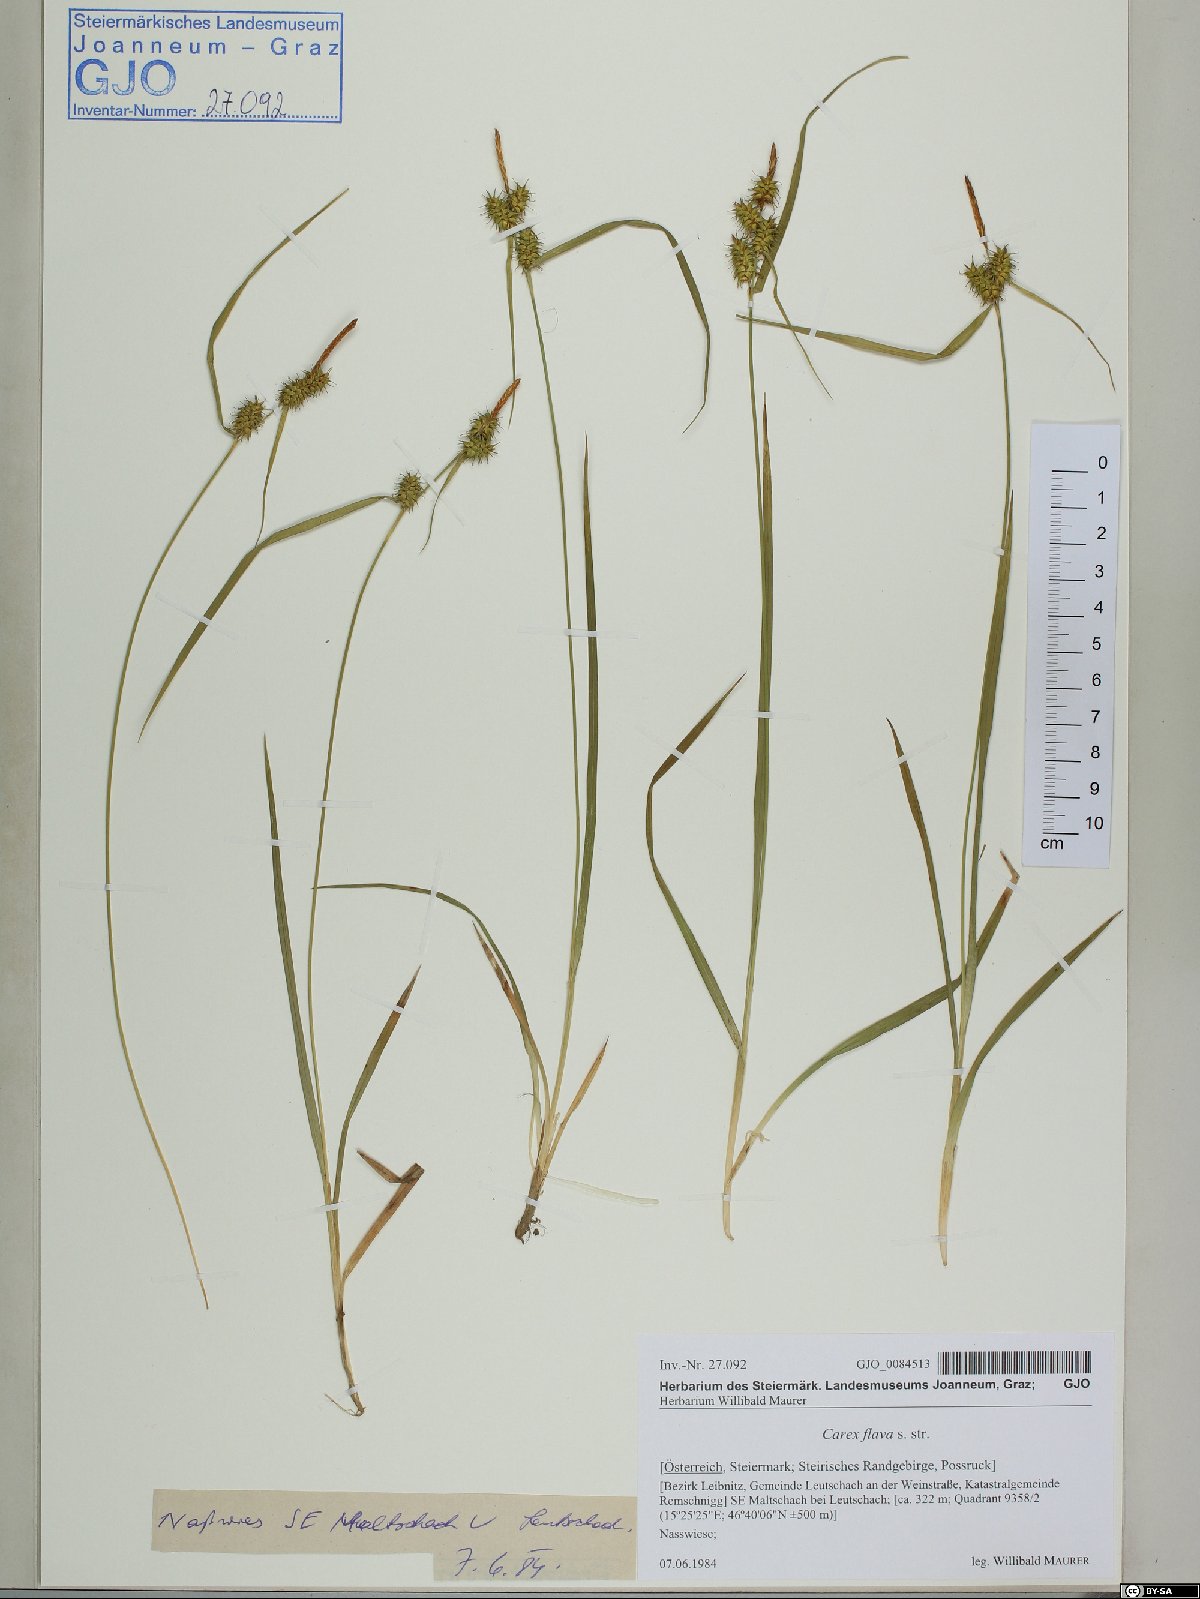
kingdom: Plantae
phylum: Tracheophyta
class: Liliopsida
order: Poales
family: Cyperaceae
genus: Carex
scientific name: Carex flava
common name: Large yellow-sedge
